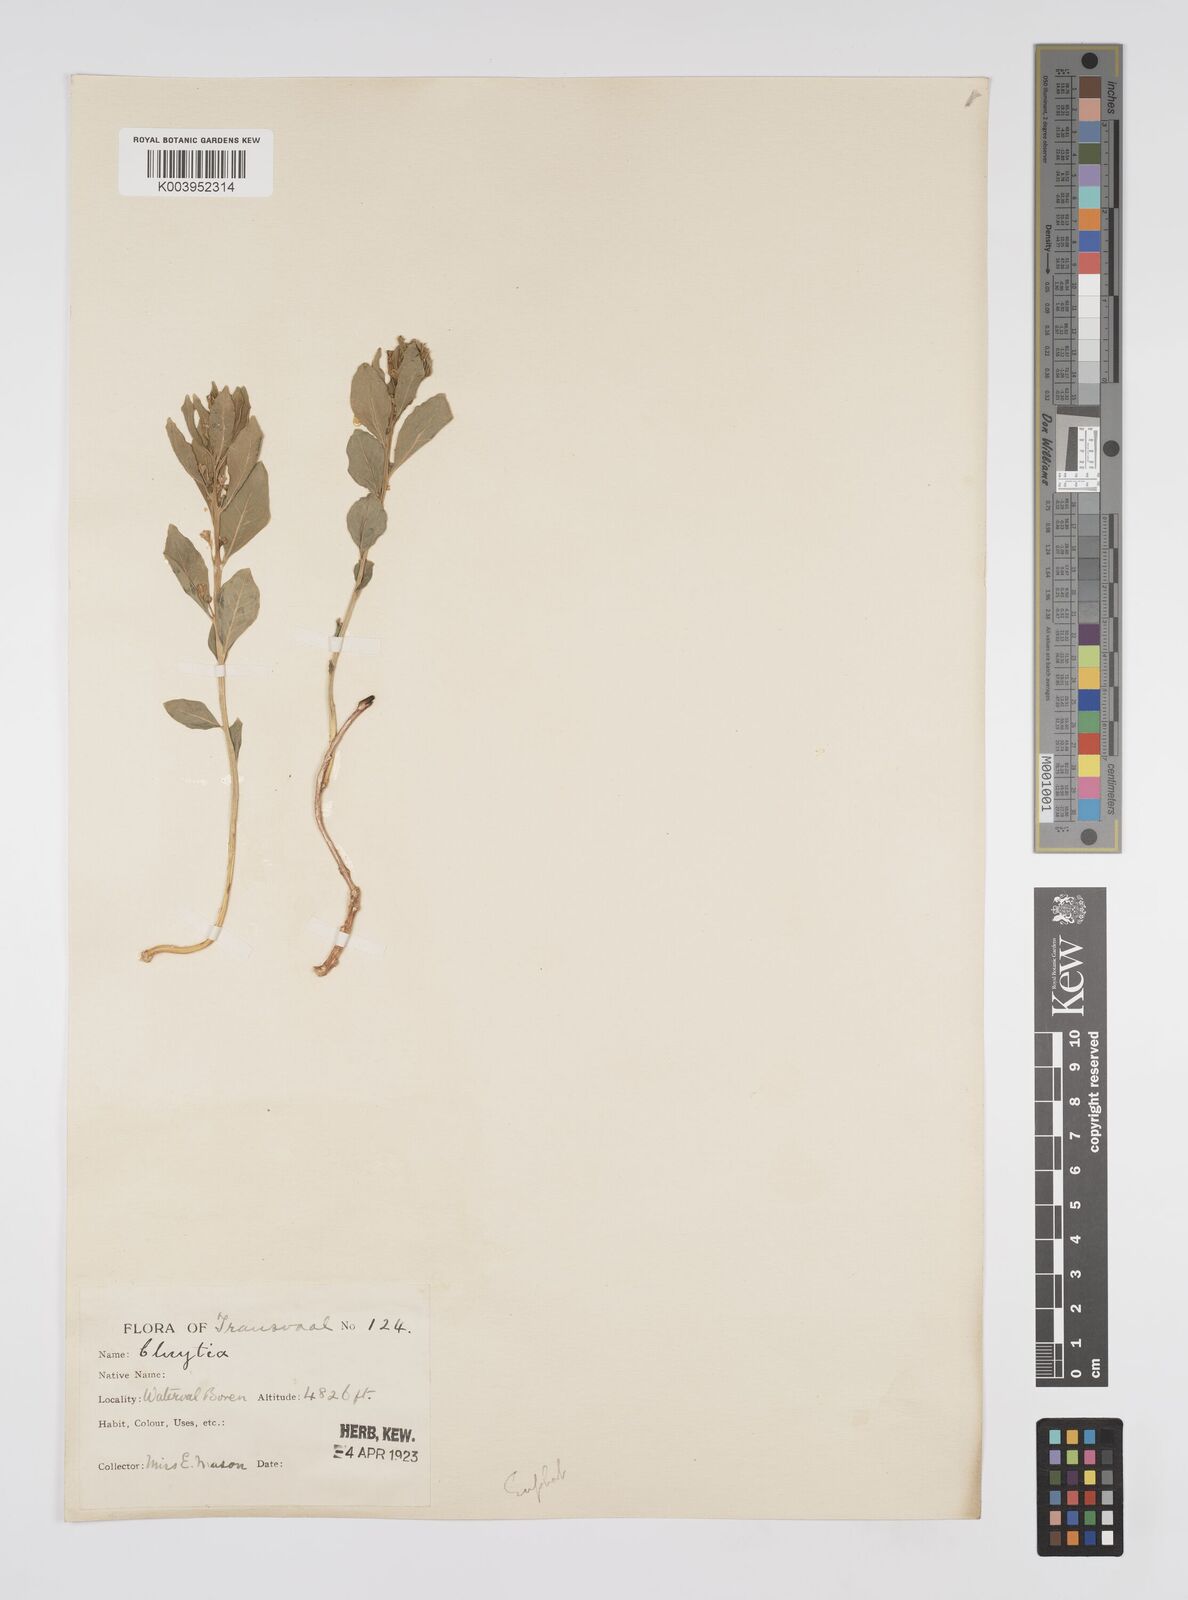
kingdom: Plantae
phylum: Tracheophyta
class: Magnoliopsida
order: Malpighiales
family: Peraceae
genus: Clutia
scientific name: Clutia
